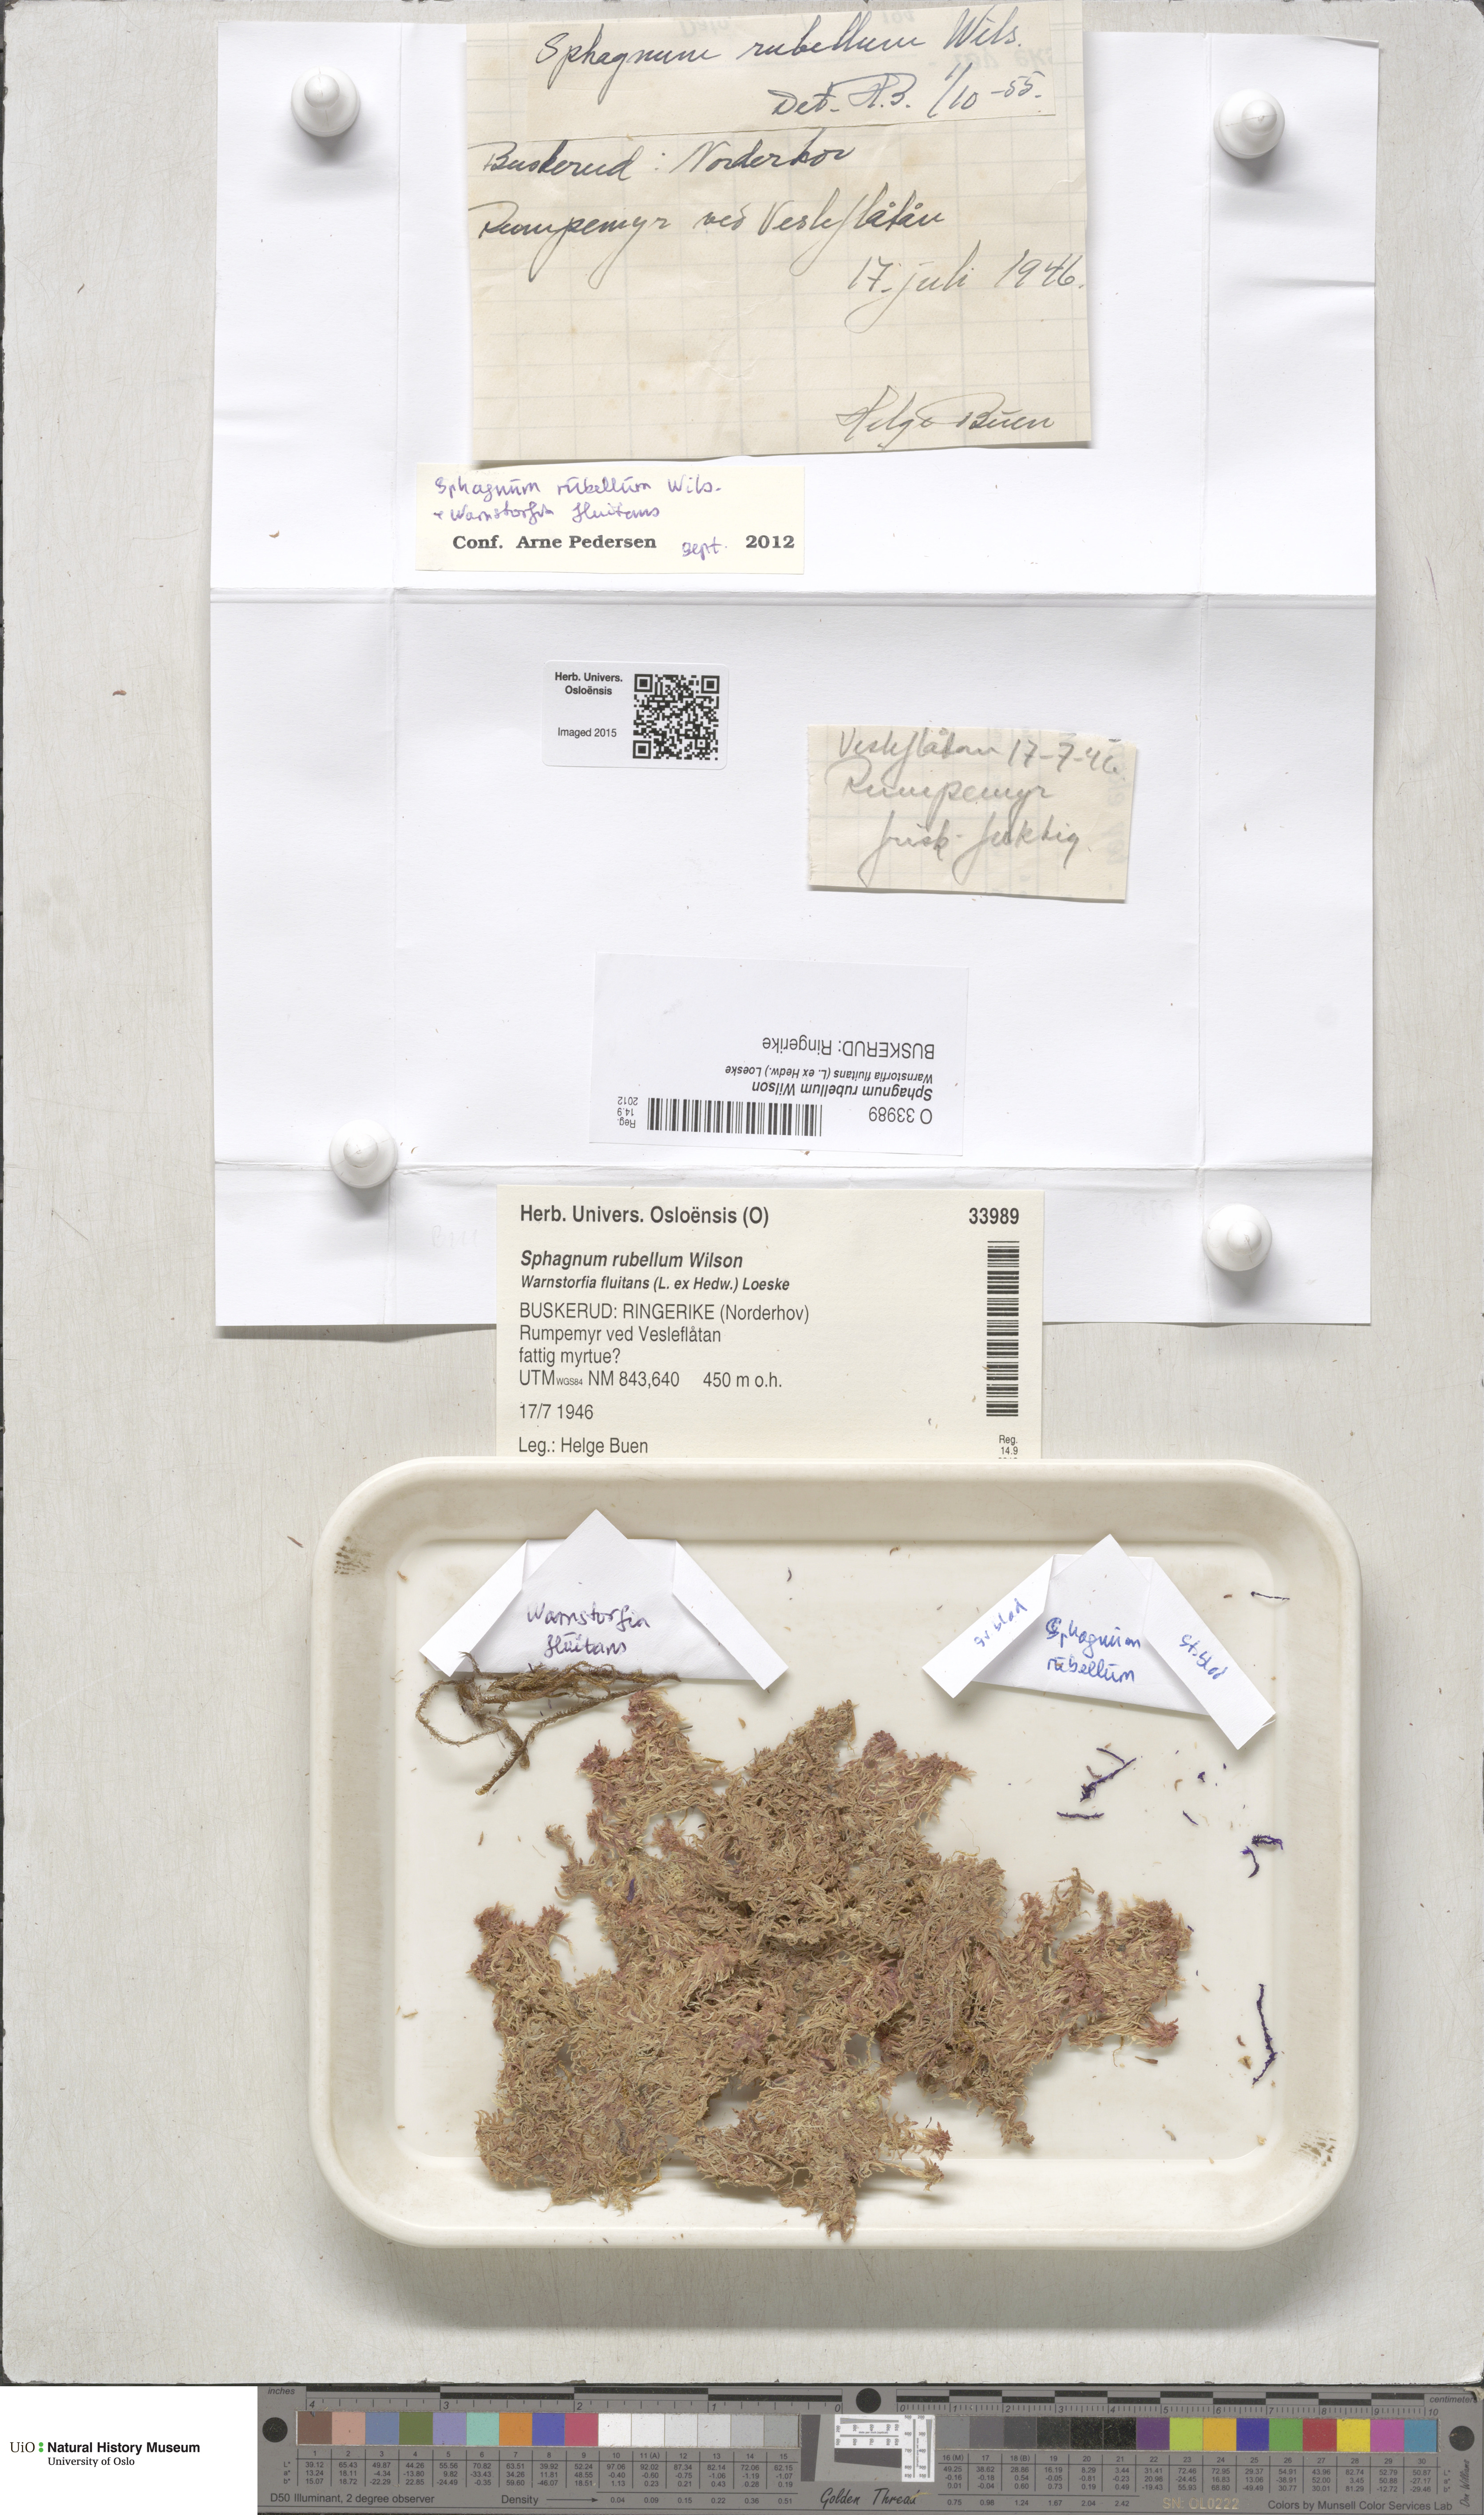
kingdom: Plantae
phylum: Bryophyta
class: Sphagnopsida
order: Sphagnales
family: Sphagnaceae
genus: Sphagnum
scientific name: Sphagnum rubellum
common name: Red peat moss
